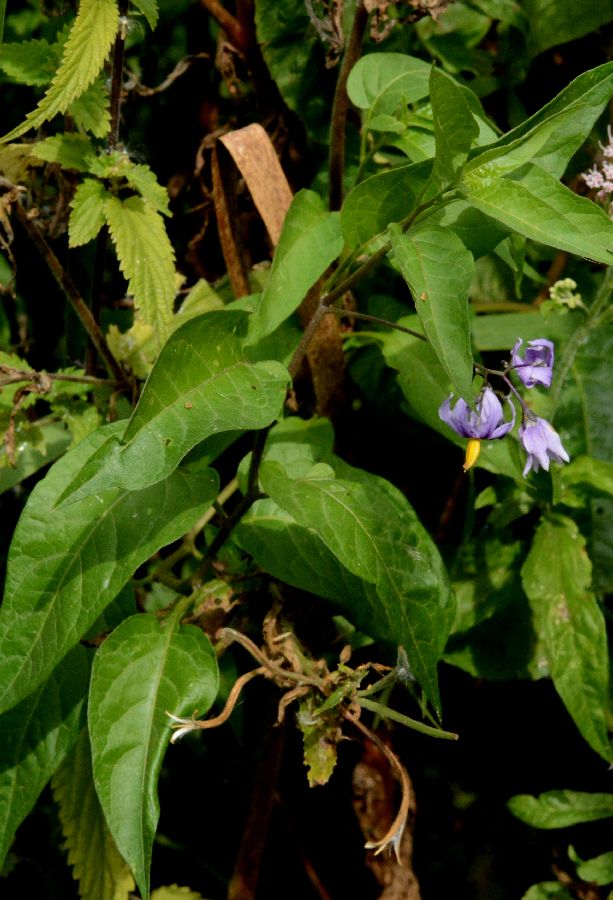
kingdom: Plantae
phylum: Tracheophyta
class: Magnoliopsida
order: Solanales
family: Solanaceae
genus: Solanum
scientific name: Solanum dulcamara
